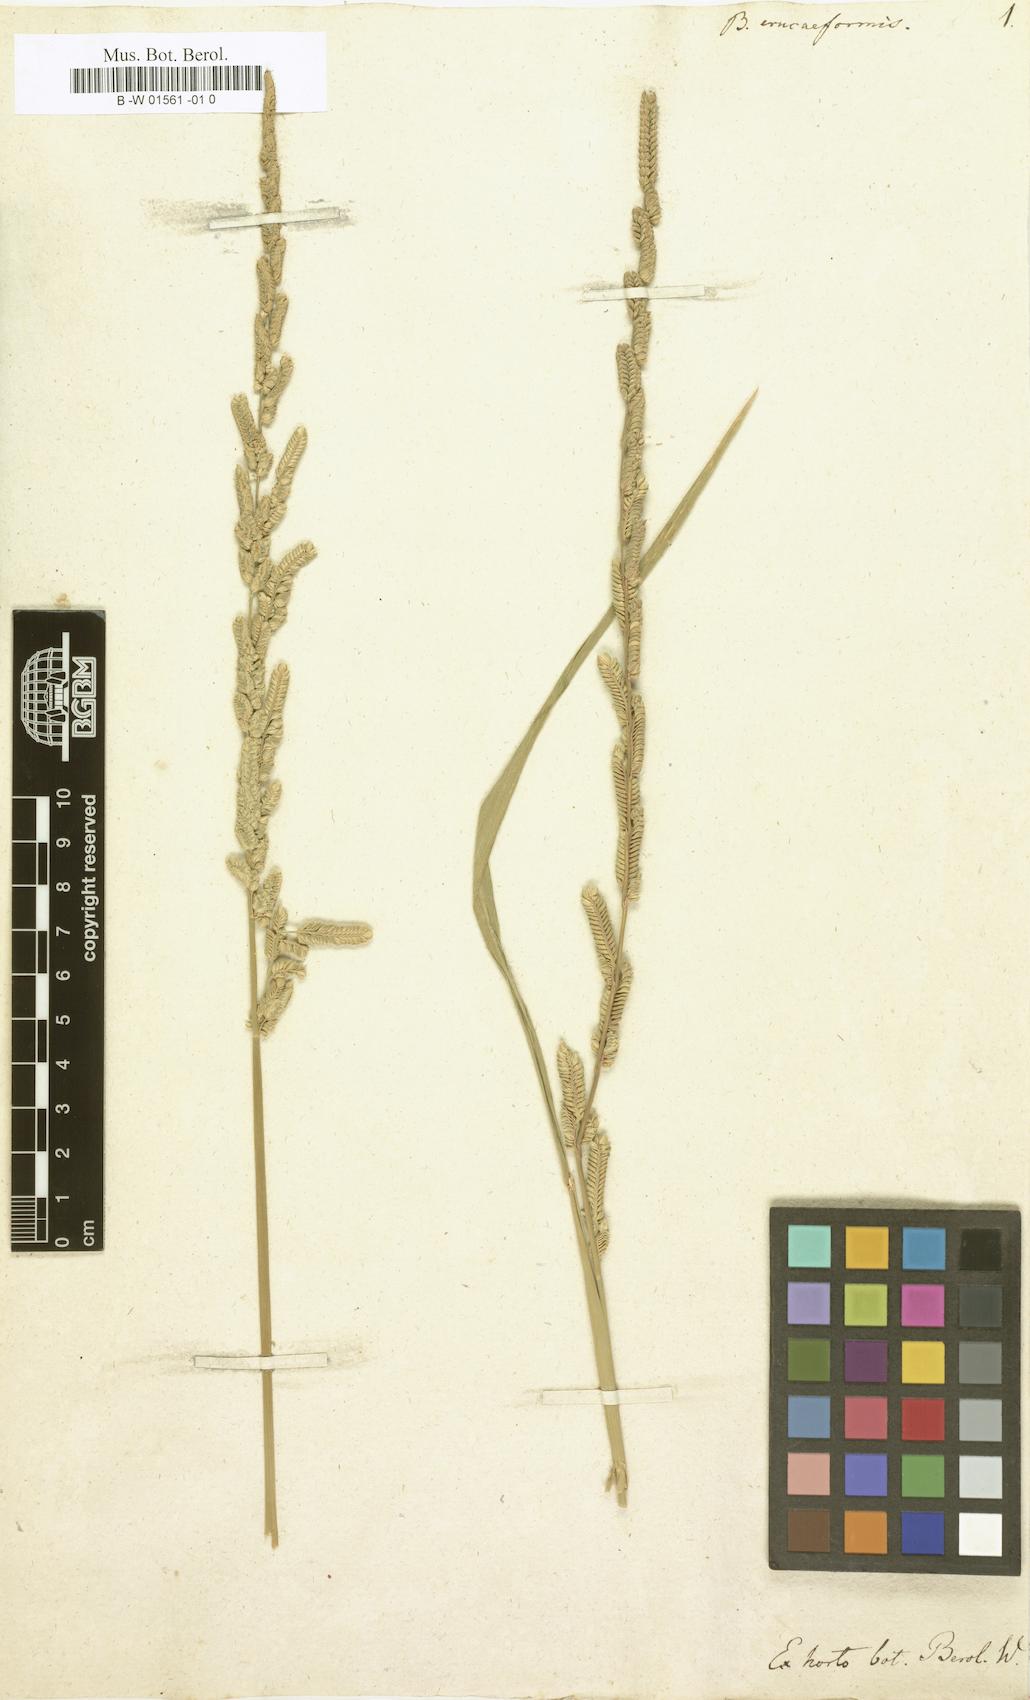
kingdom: Plantae
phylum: Tracheophyta
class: Liliopsida
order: Poales
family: Poaceae
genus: Beckmannia
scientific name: Beckmannia eruciformis
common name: European slough-grass
